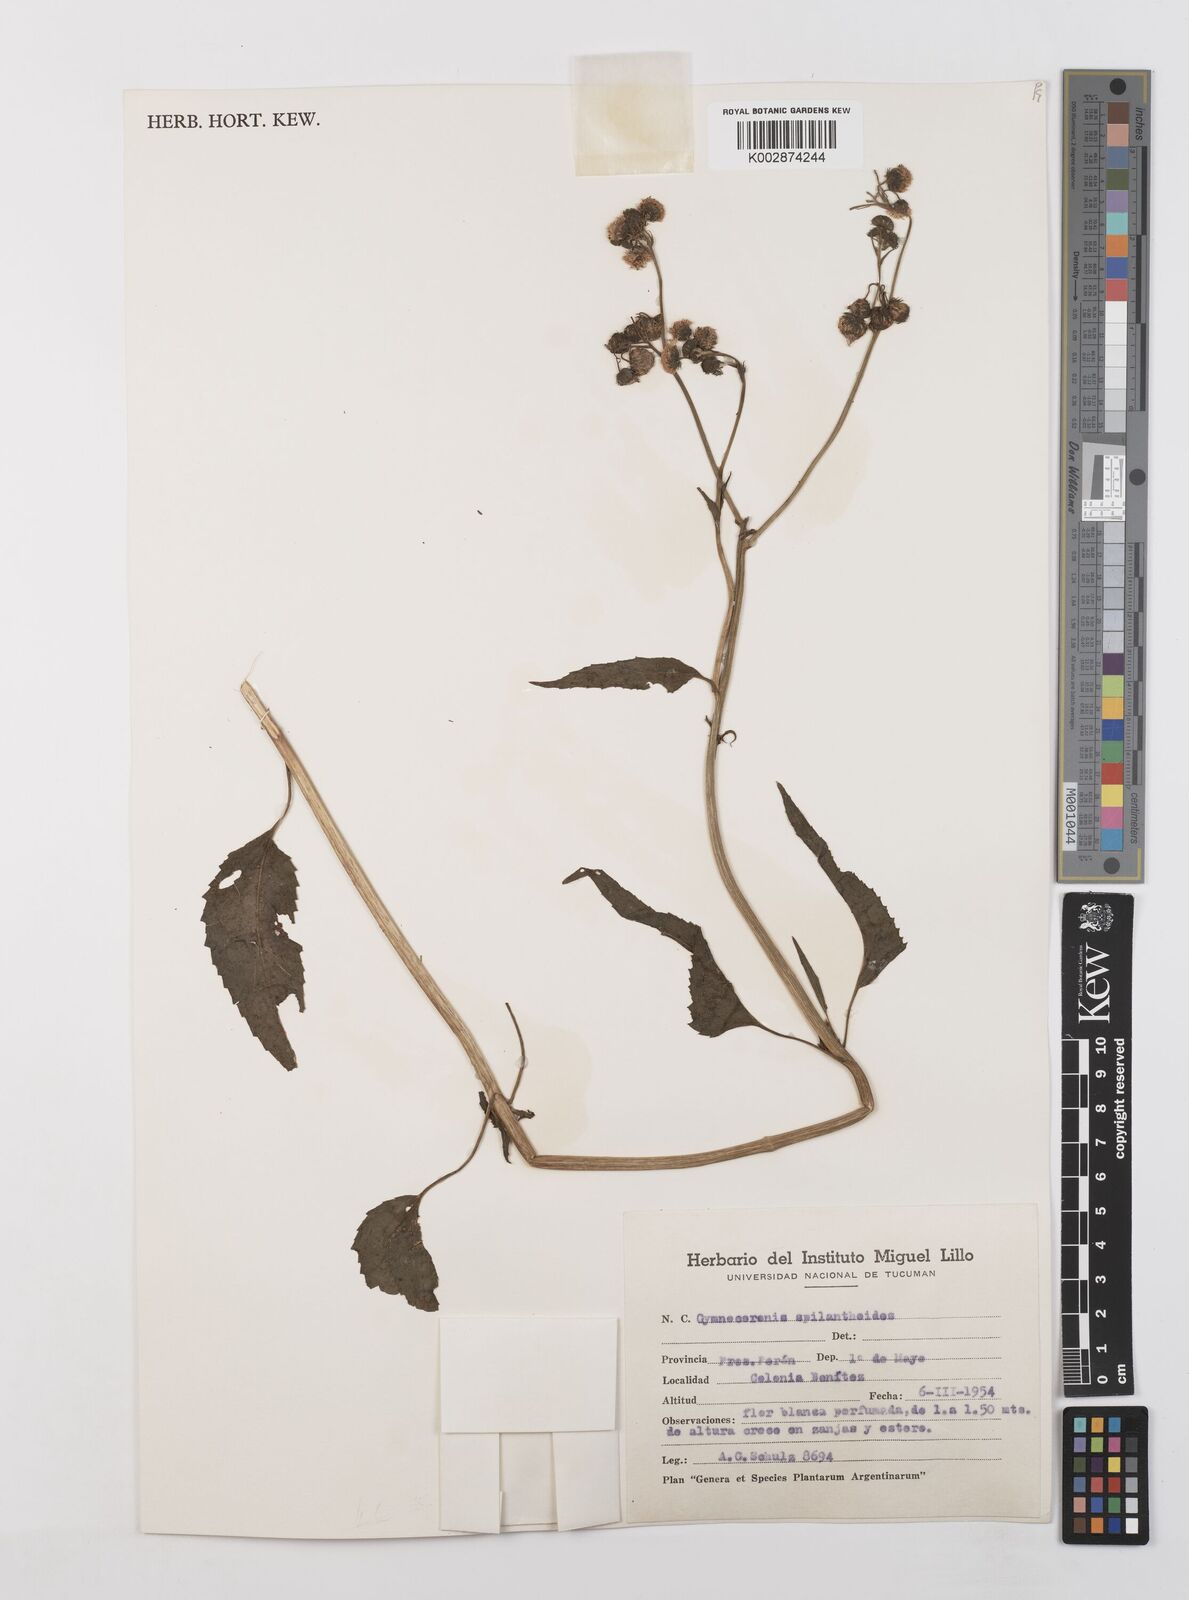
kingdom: Plantae
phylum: Tracheophyta
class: Magnoliopsida
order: Asterales
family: Asteraceae
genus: Gymnocoronis
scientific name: Gymnocoronis spilanthoides
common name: Senegal teaplant
